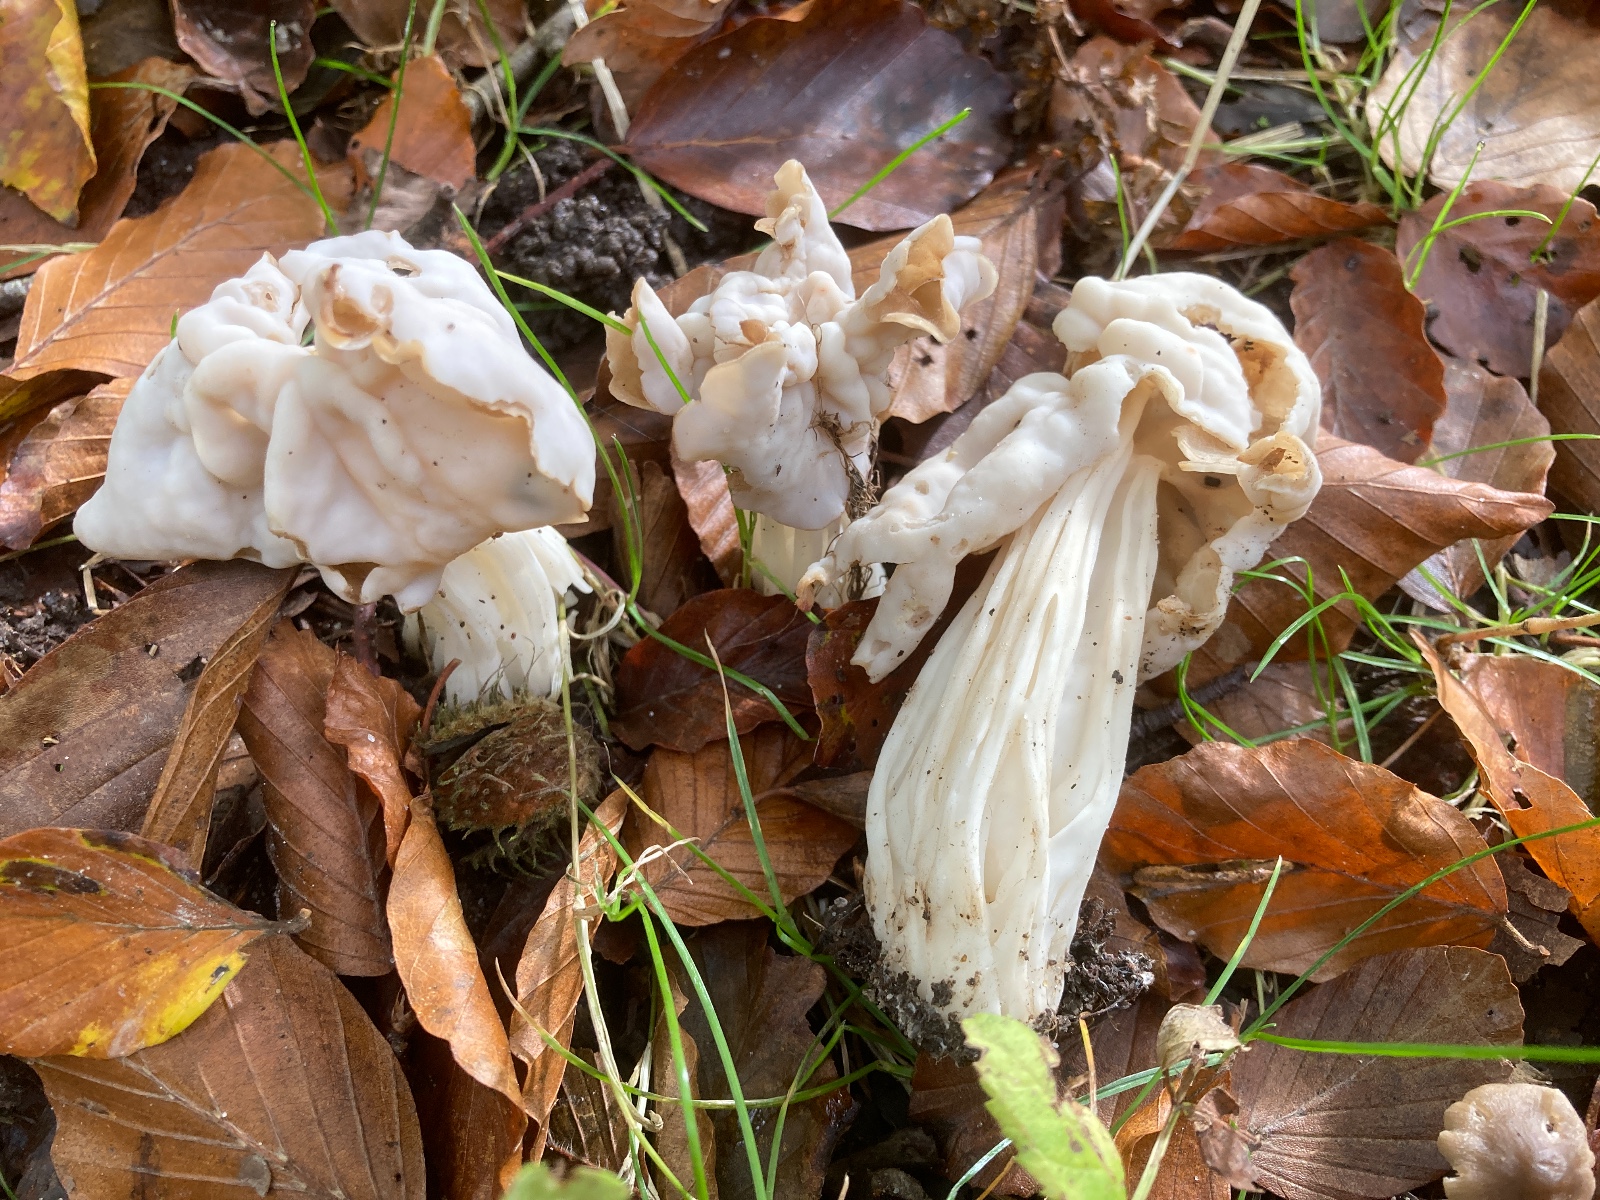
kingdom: Fungi
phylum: Ascomycota
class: Pezizomycetes
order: Pezizales
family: Helvellaceae
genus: Helvella
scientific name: Helvella crispa
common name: kruset foldhat
